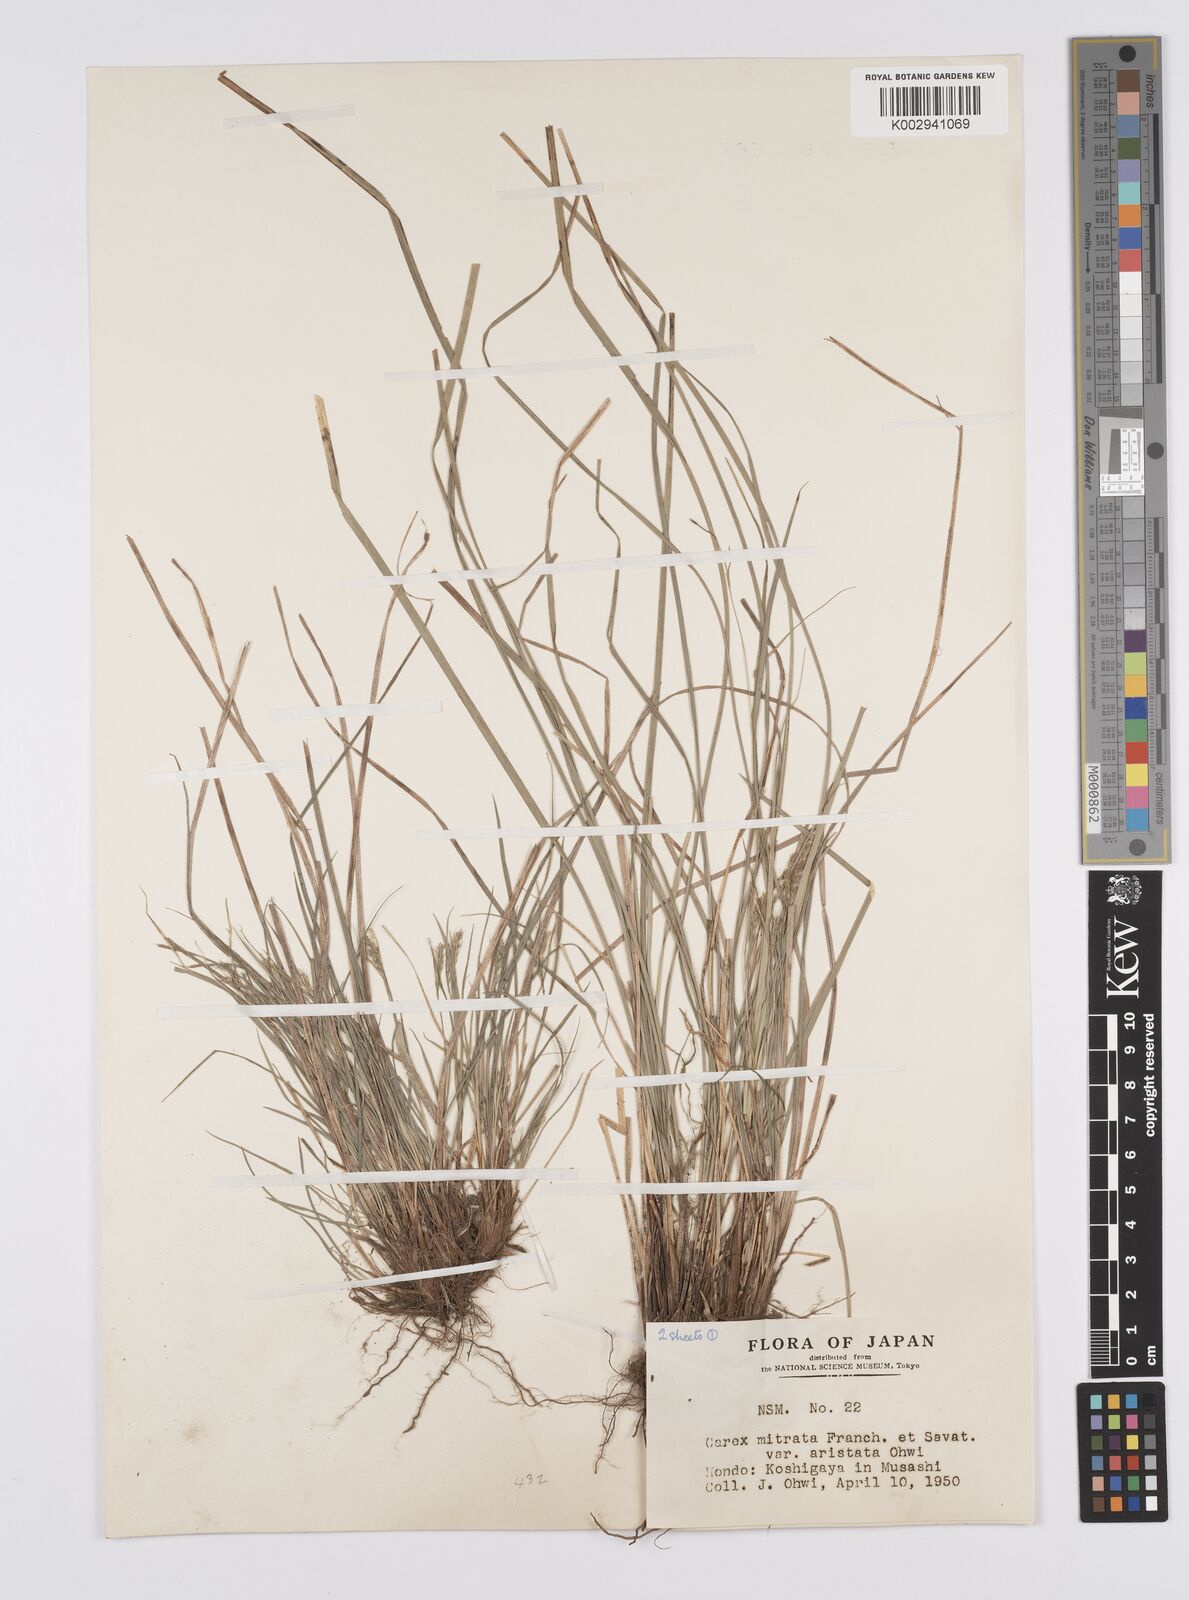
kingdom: Plantae
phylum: Tracheophyta
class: Liliopsida
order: Poales
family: Cyperaceae
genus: Carex
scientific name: Carex mitrata
